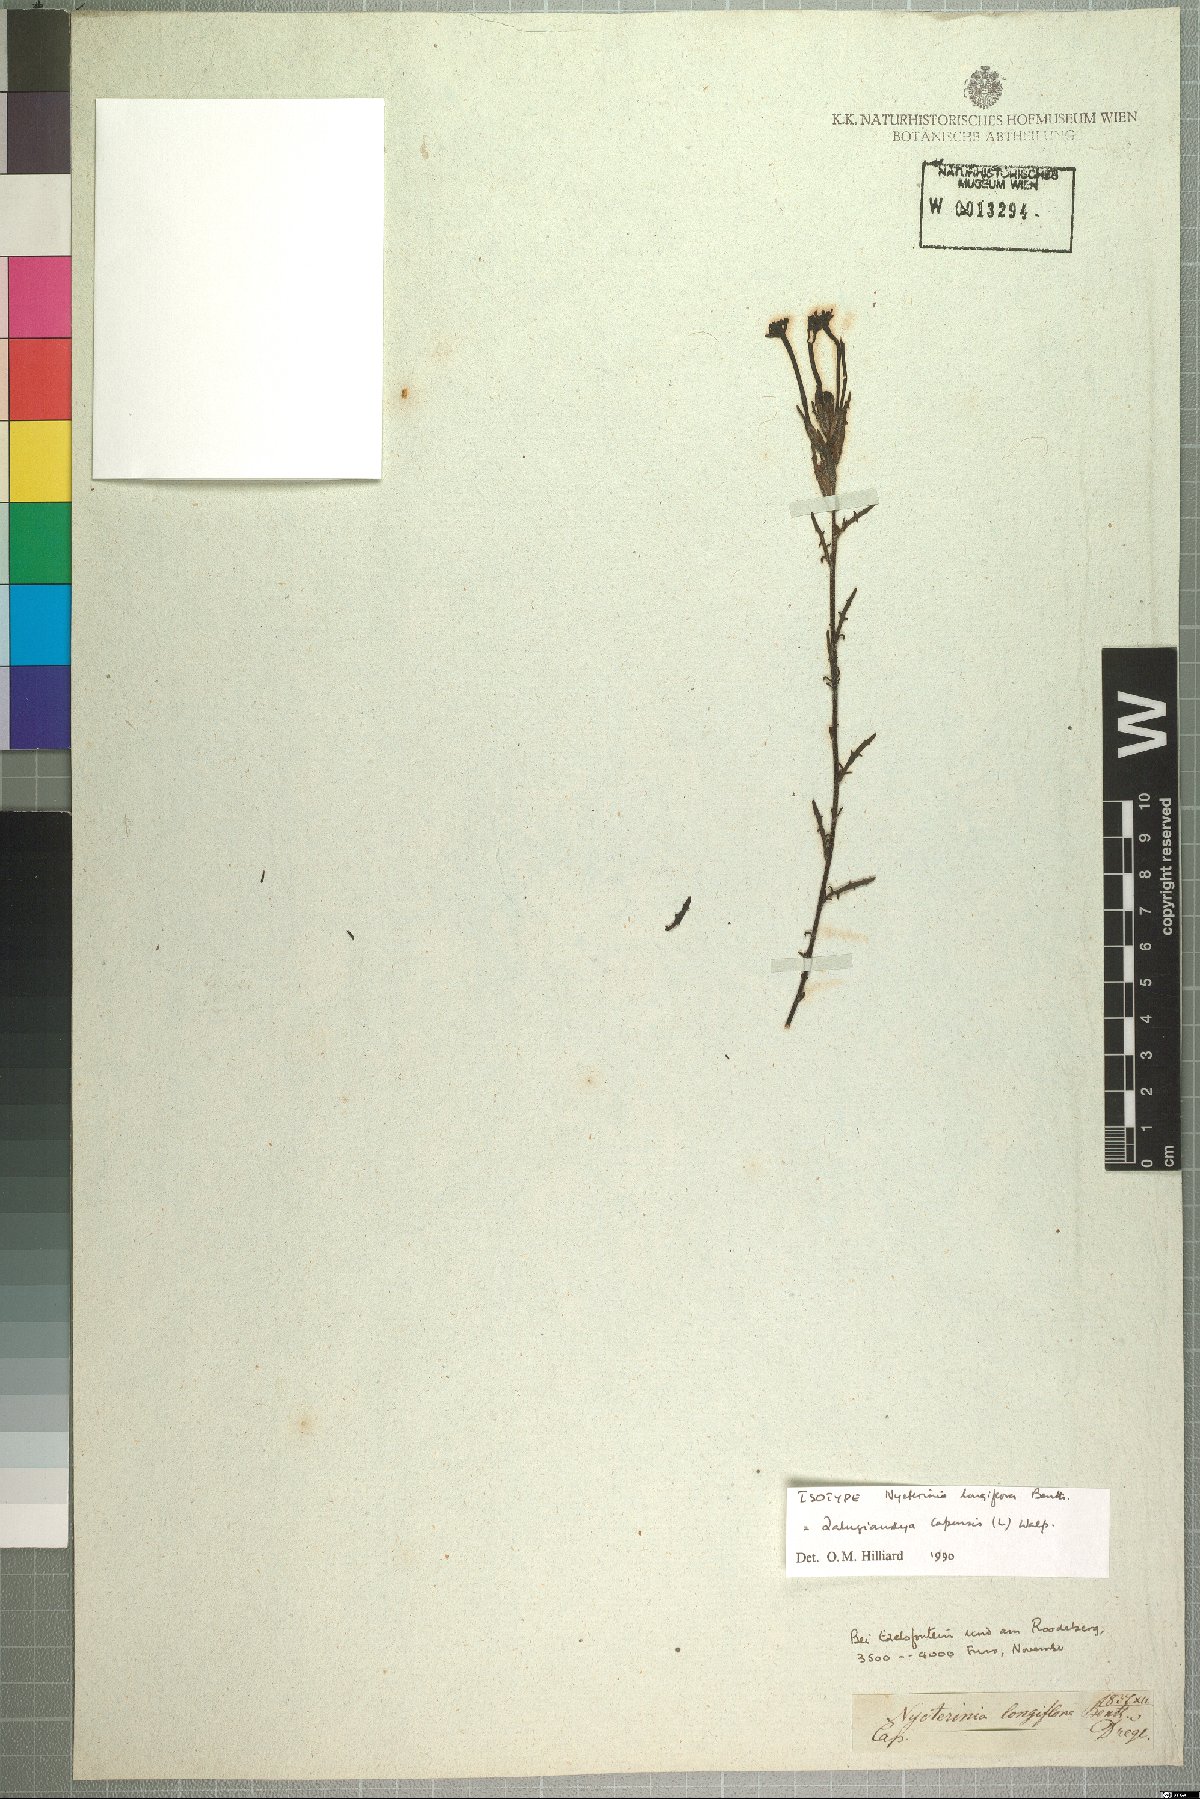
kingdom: Plantae
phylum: Tracheophyta
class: Magnoliopsida
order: Lamiales
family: Scrophulariaceae
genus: Zaluzianskya
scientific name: Zaluzianskya capensis
